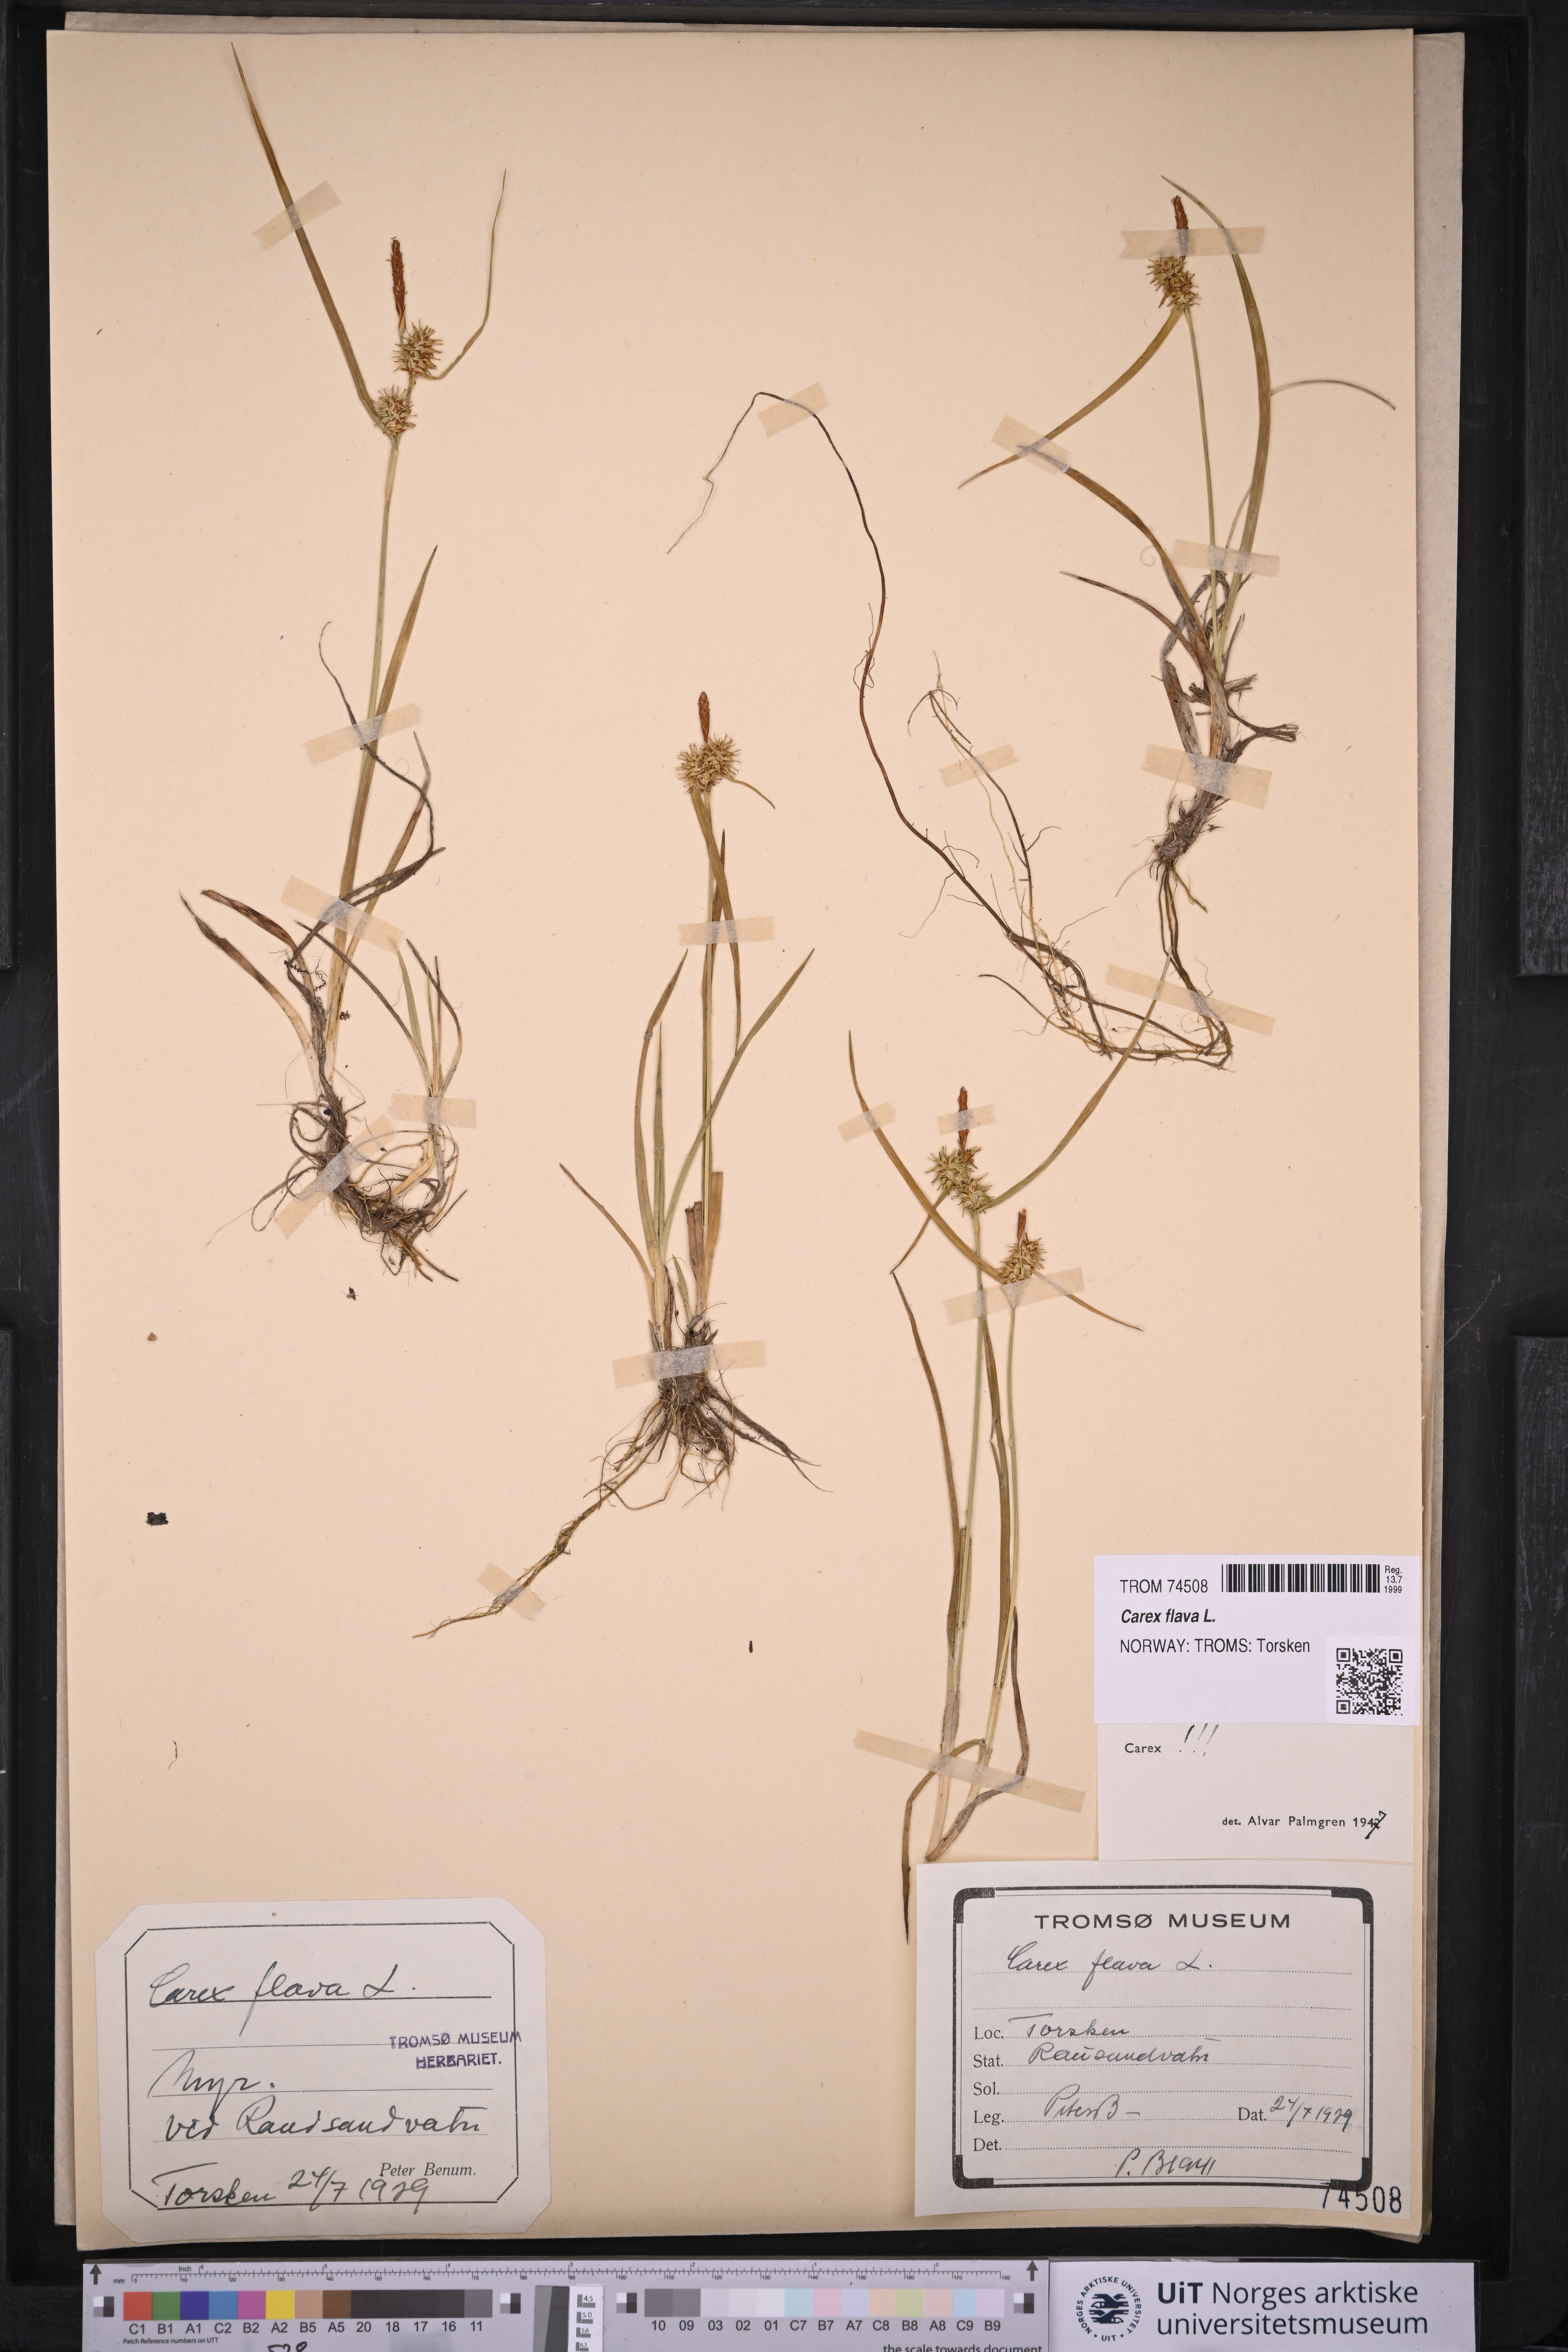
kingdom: Plantae
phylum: Tracheophyta
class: Liliopsida
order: Poales
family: Cyperaceae
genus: Carex
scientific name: Carex flava
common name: Large yellow-sedge
